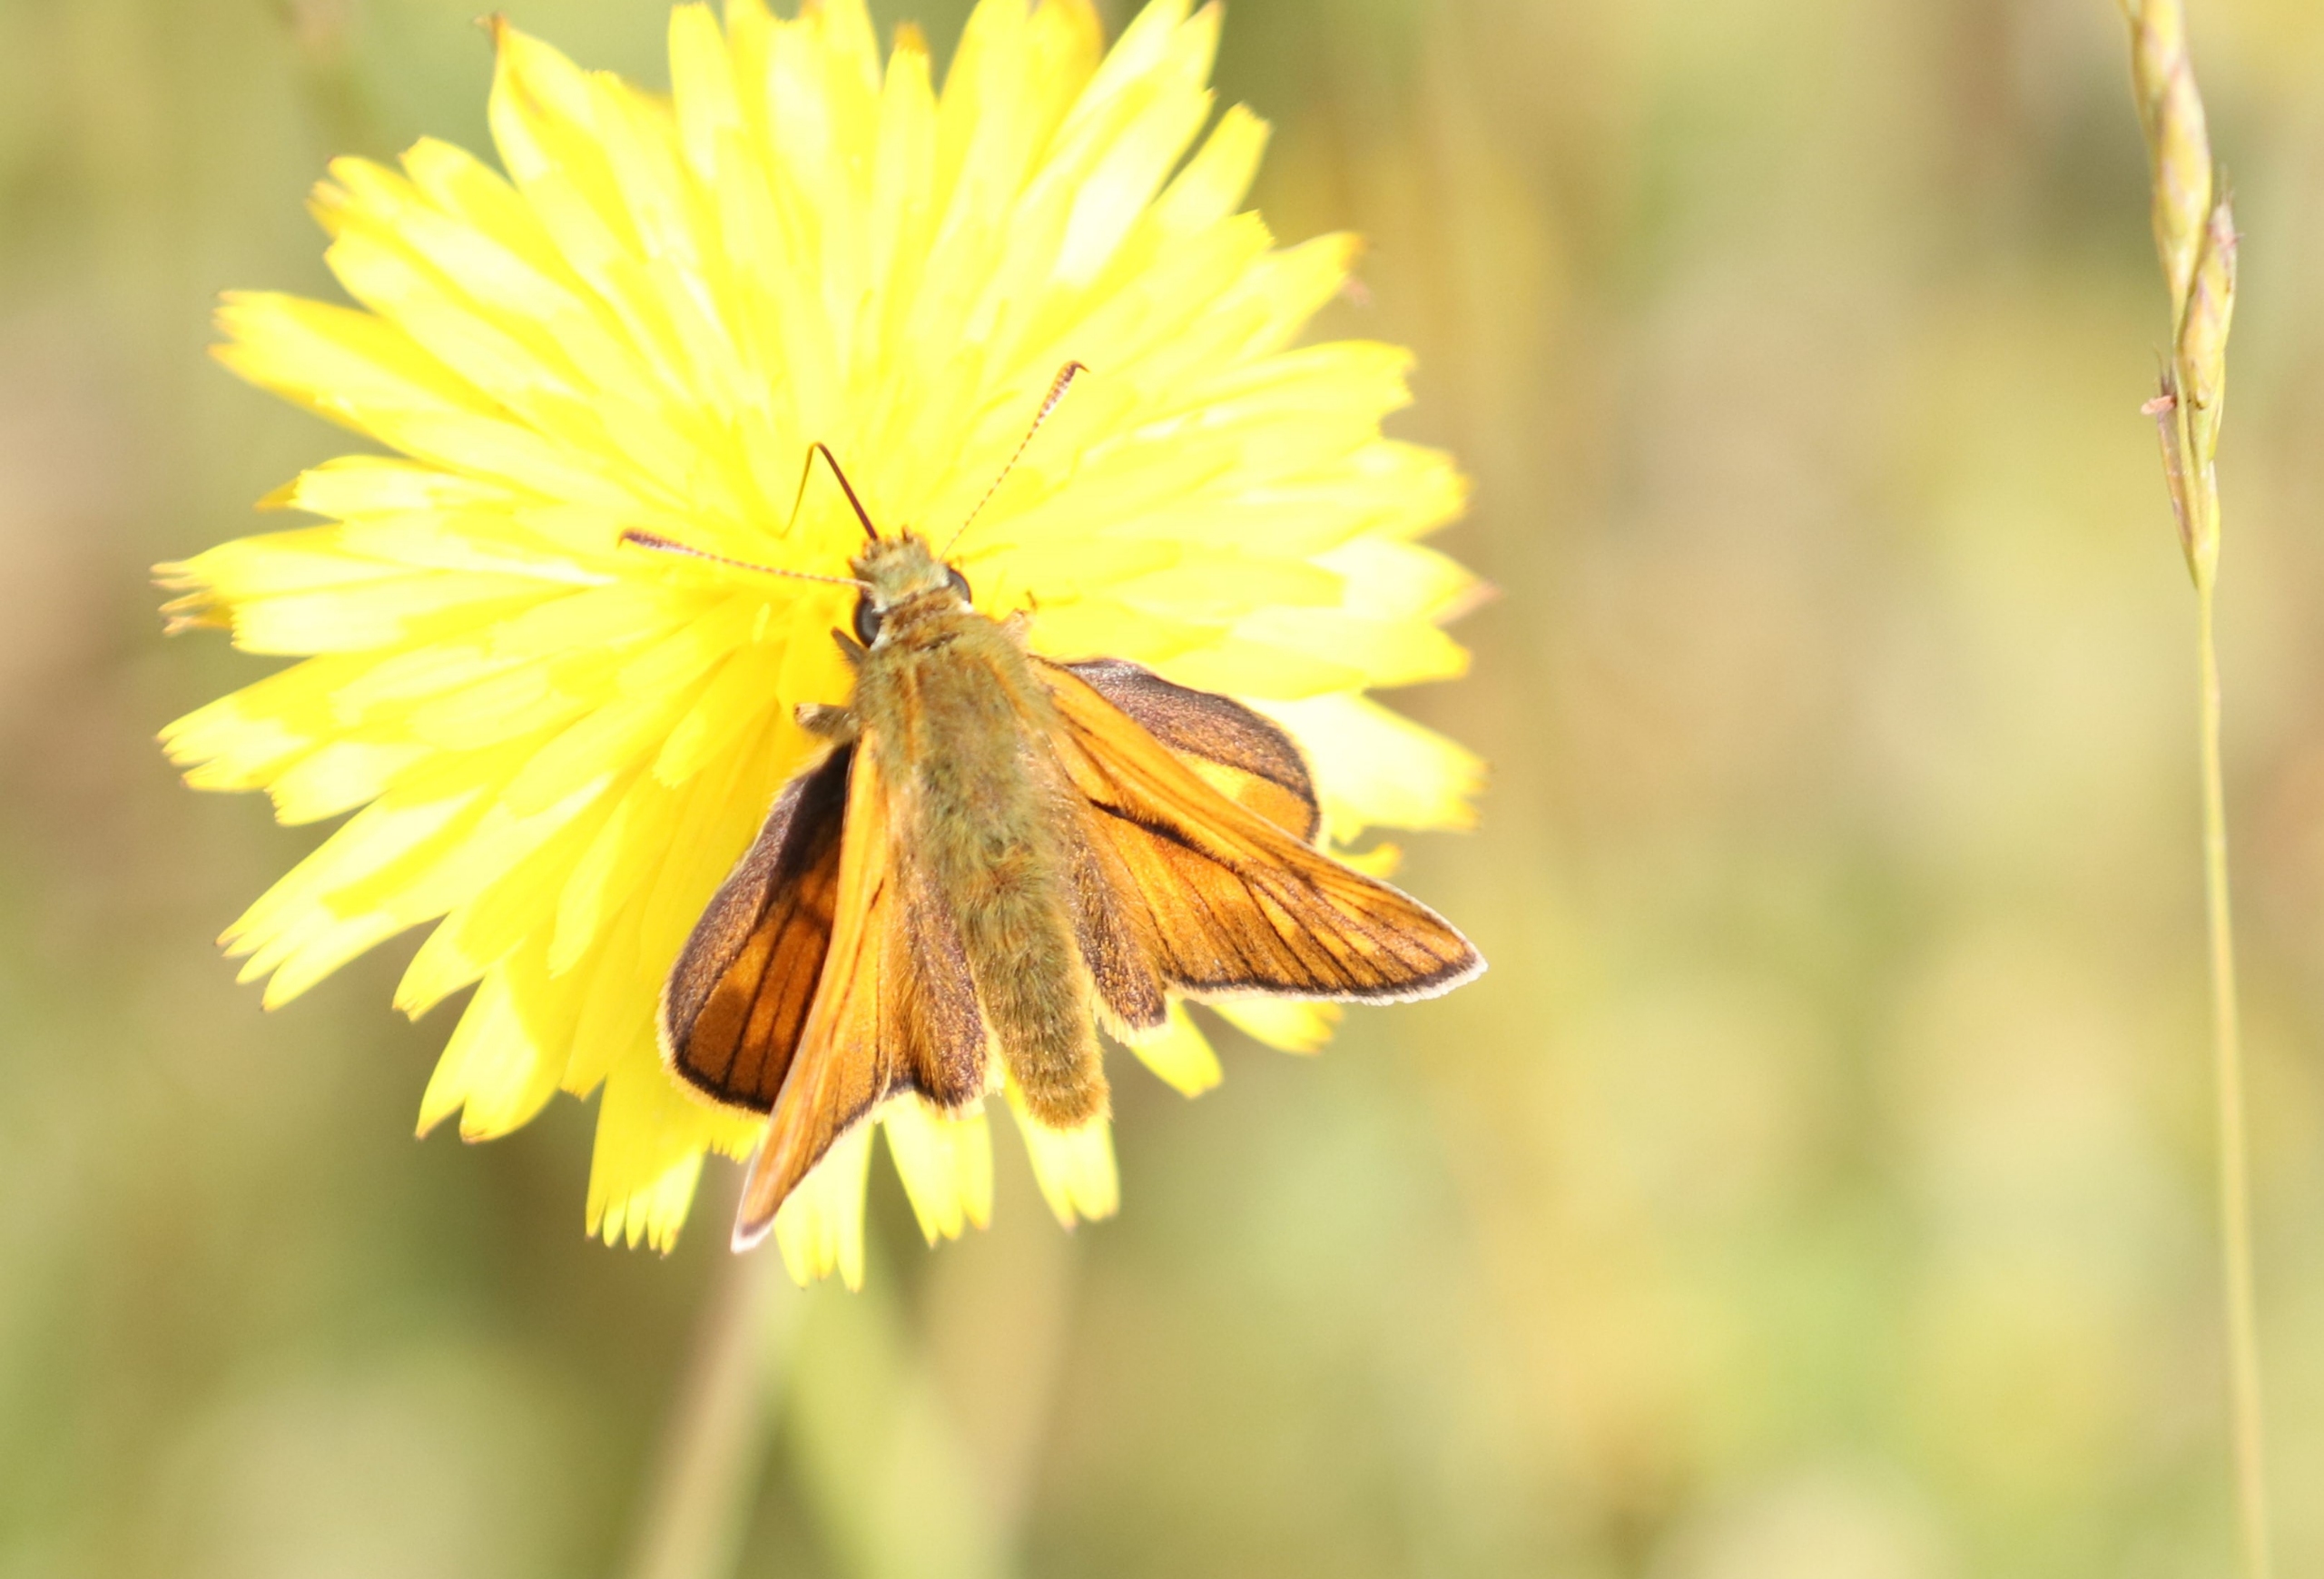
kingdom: Animalia
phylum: Arthropoda
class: Insecta
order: Lepidoptera
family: Hesperiidae
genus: Ochlodes
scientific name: Ochlodes venata
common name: Stor bredpande
